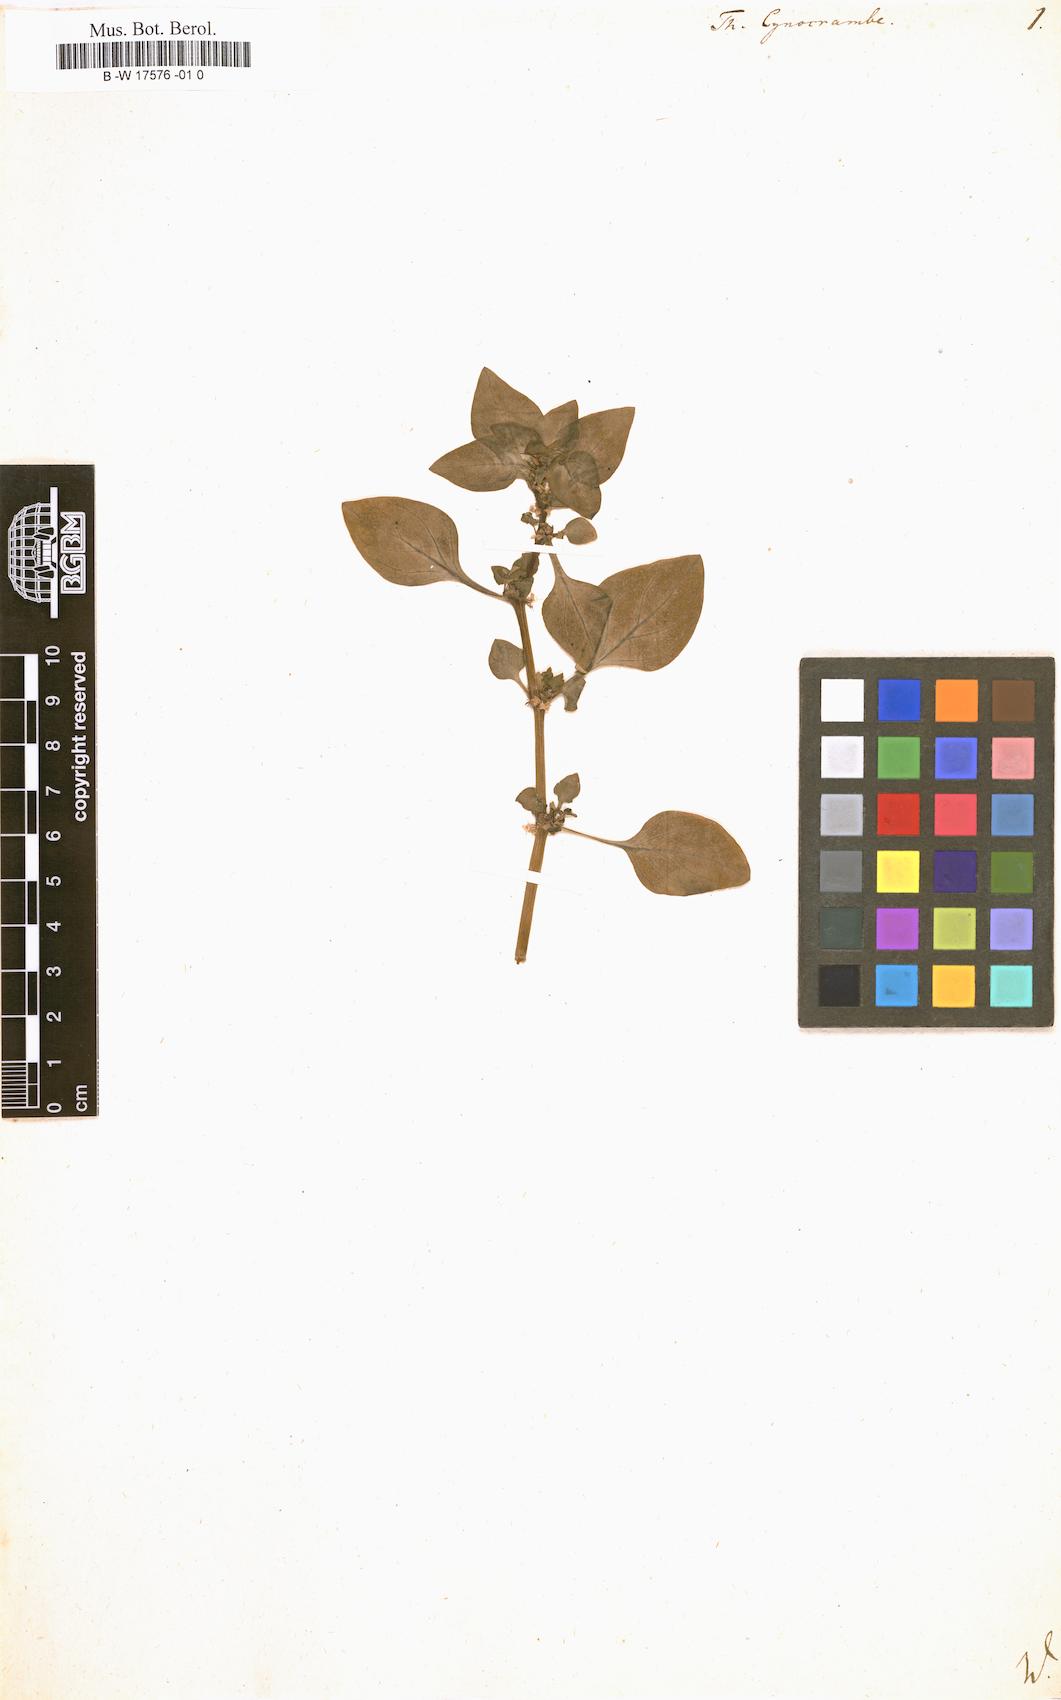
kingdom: Plantae
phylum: Tracheophyta
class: Magnoliopsida
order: Gentianales
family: Rubiaceae
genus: Theligonum
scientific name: Theligonum cynocrambe
